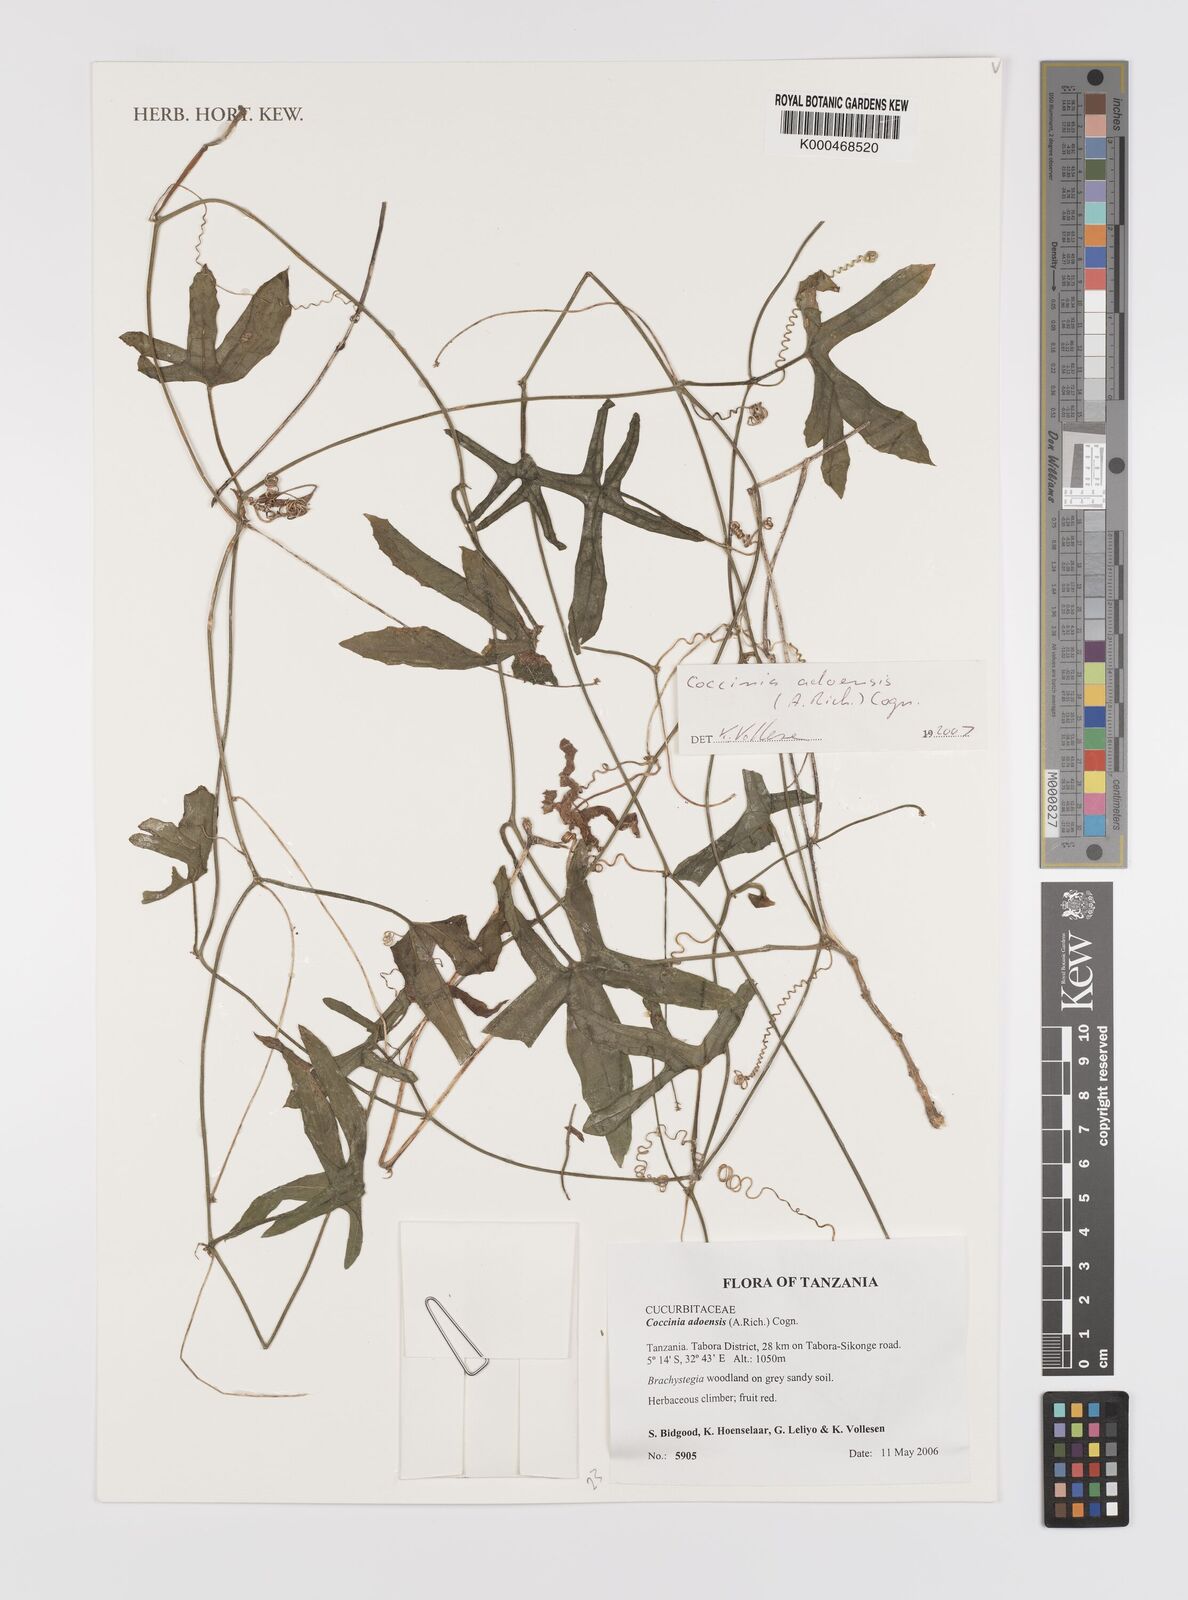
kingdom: Plantae
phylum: Tracheophyta
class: Magnoliopsida
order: Cucurbitales
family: Cucurbitaceae
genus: Coccinia
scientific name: Coccinia adoensis
